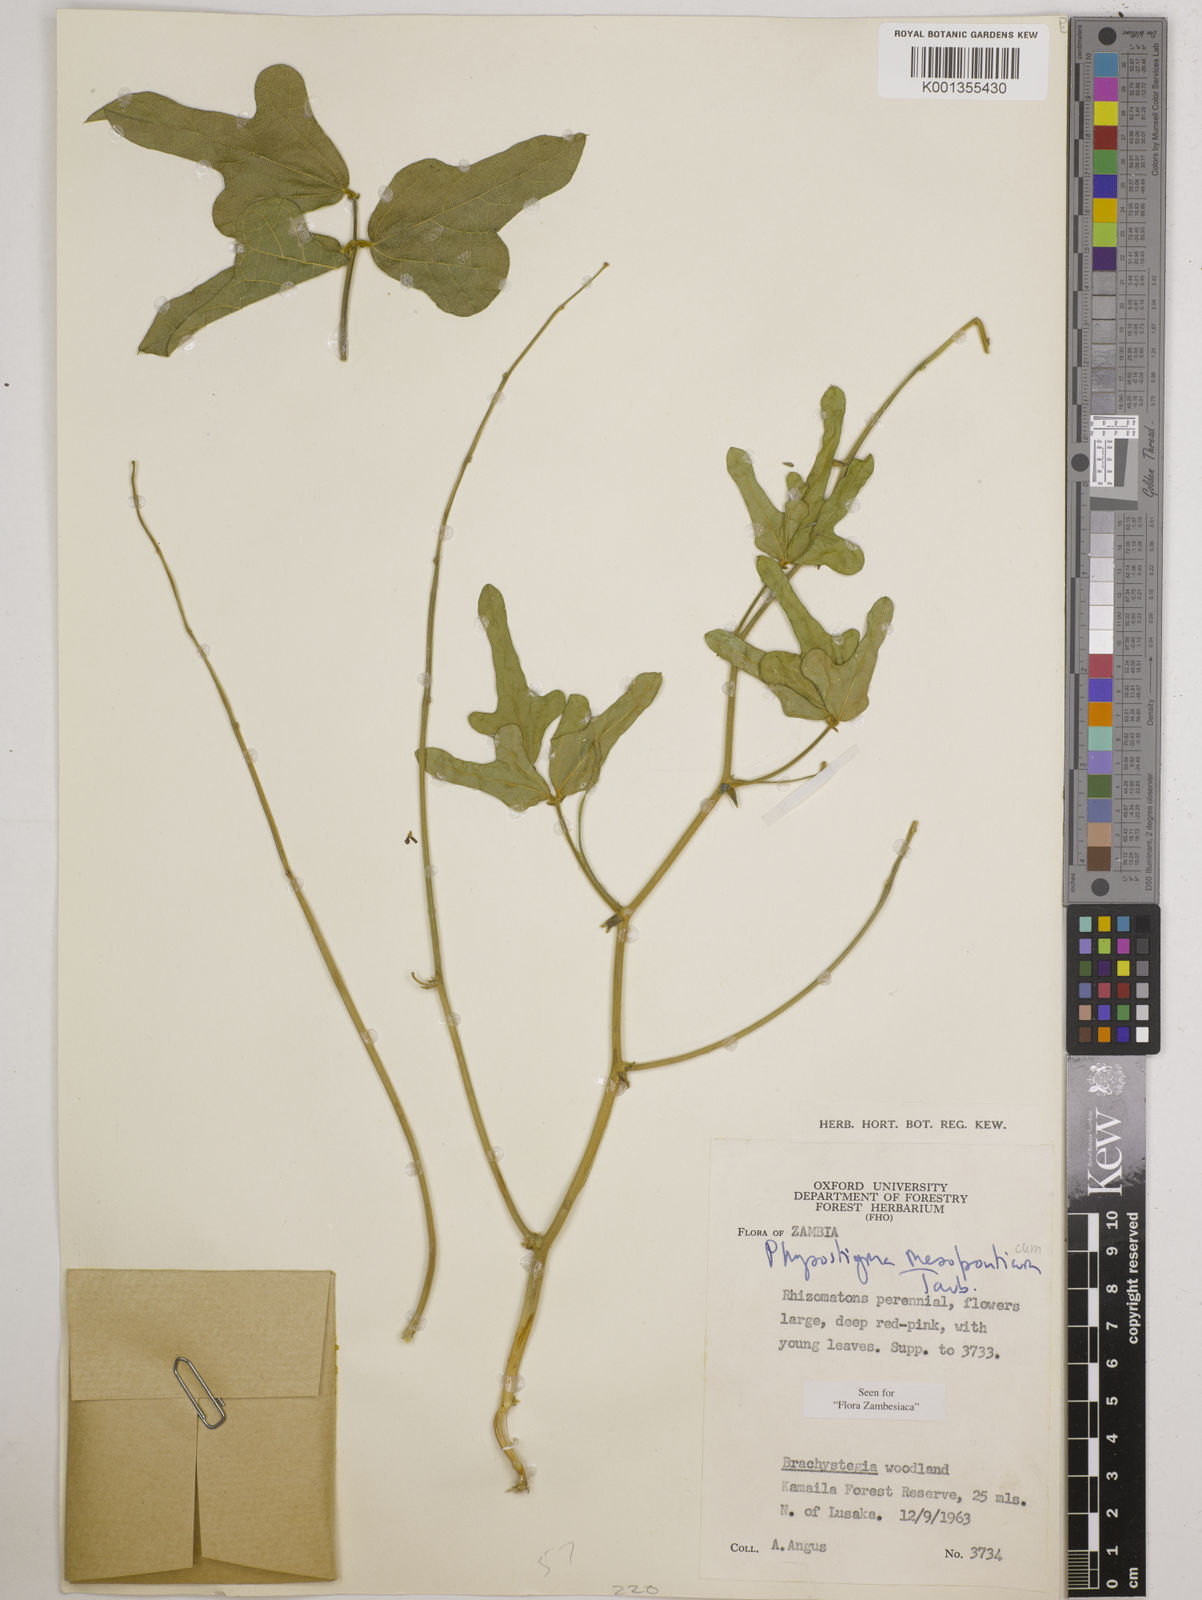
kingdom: Plantae
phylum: Tracheophyta
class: Magnoliopsida
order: Fabales
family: Fabaceae
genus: Physostigma
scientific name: Physostigma mesoponticum
